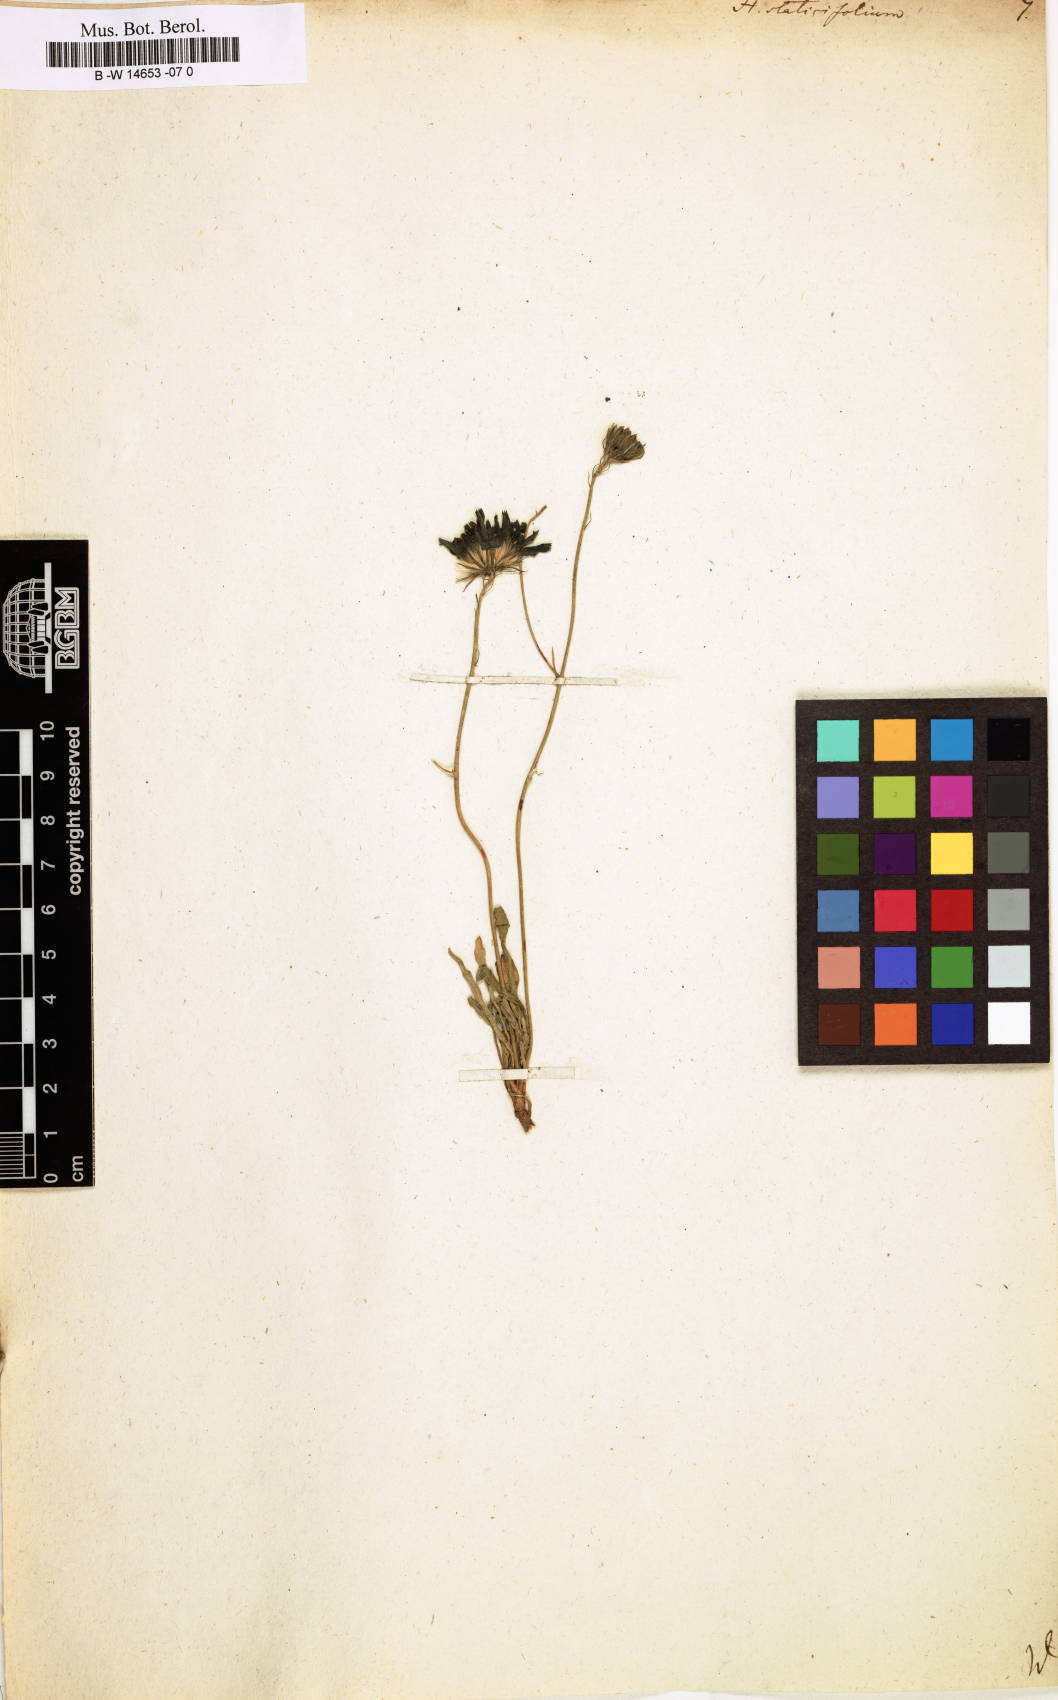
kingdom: Plantae
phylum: Tracheophyta
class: Magnoliopsida
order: Asterales
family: Asteraceae
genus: Hieracium
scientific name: Hieracium staticifolium
